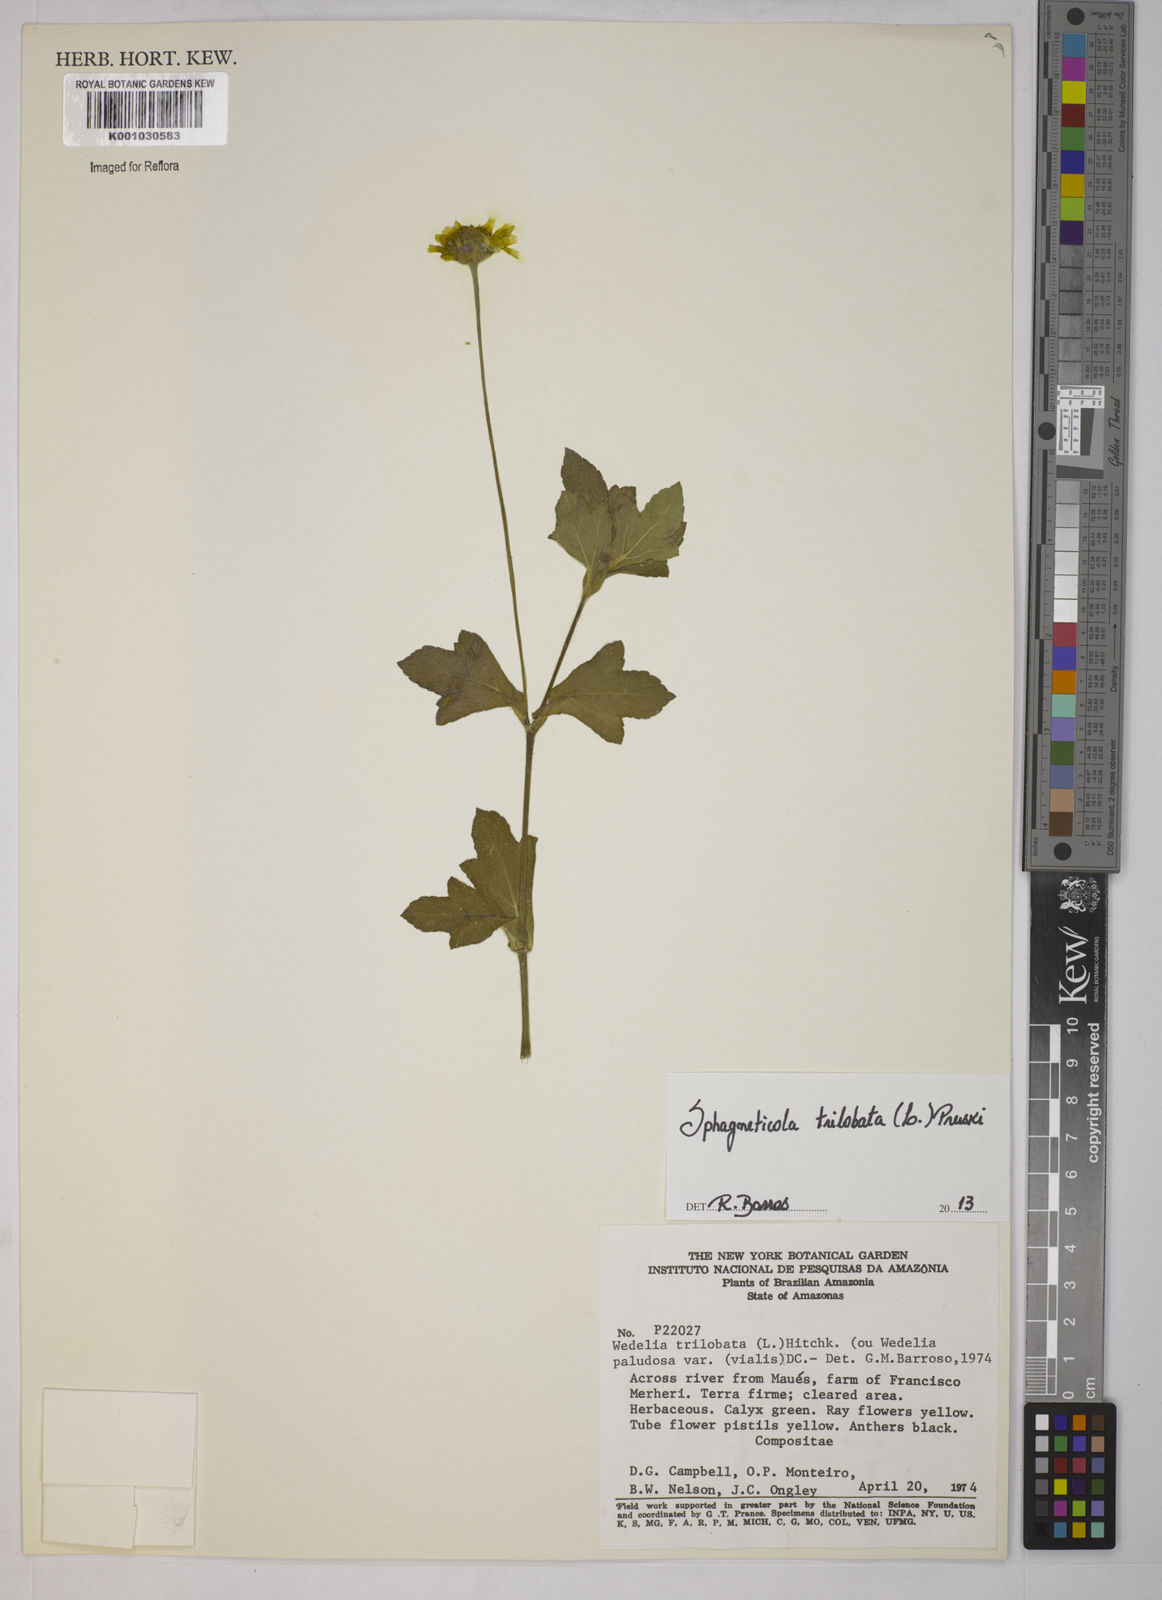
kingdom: Plantae
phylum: Tracheophyta
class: Magnoliopsida
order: Asterales
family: Asteraceae
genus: Sphagneticola
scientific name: Sphagneticola trilobata
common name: Bay biscayne creeping-oxeye
